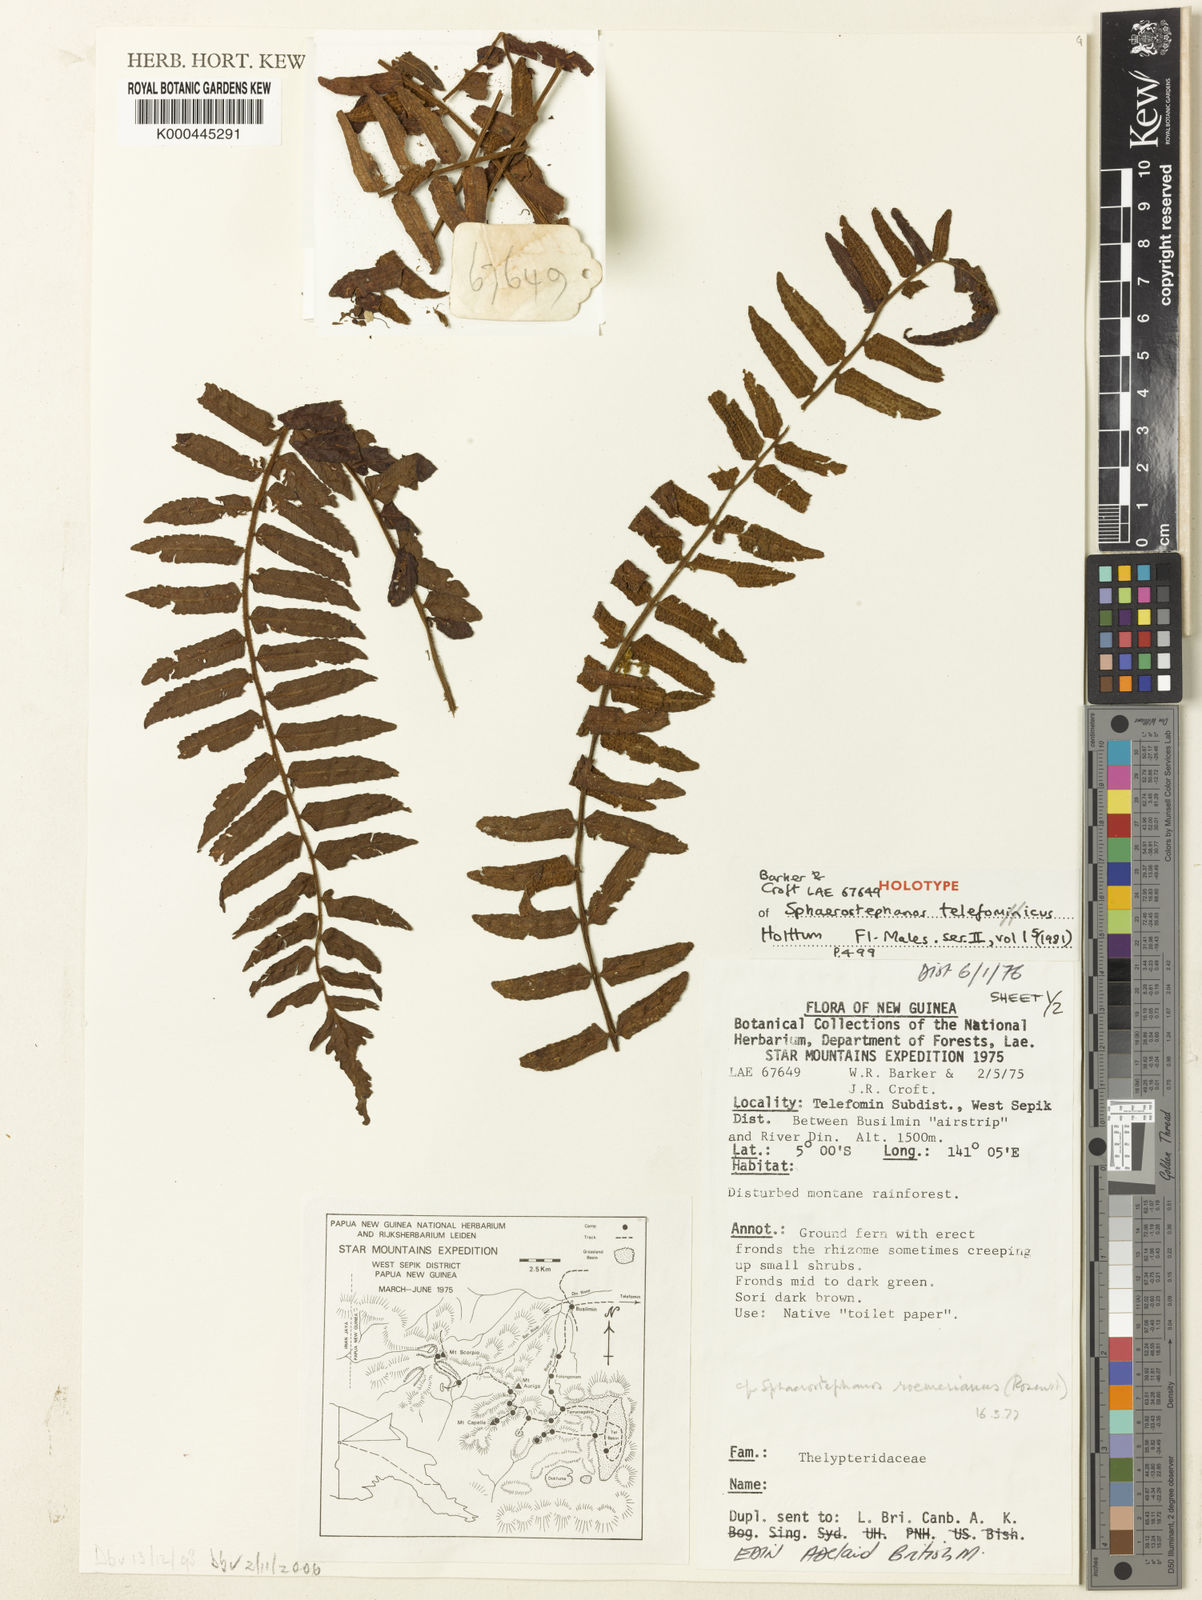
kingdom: Plantae
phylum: Tracheophyta
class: Polypodiopsida
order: Polypodiales
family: Thelypteridaceae
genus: Sphaerostephanos
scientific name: Sphaerostephanos telefominicus
